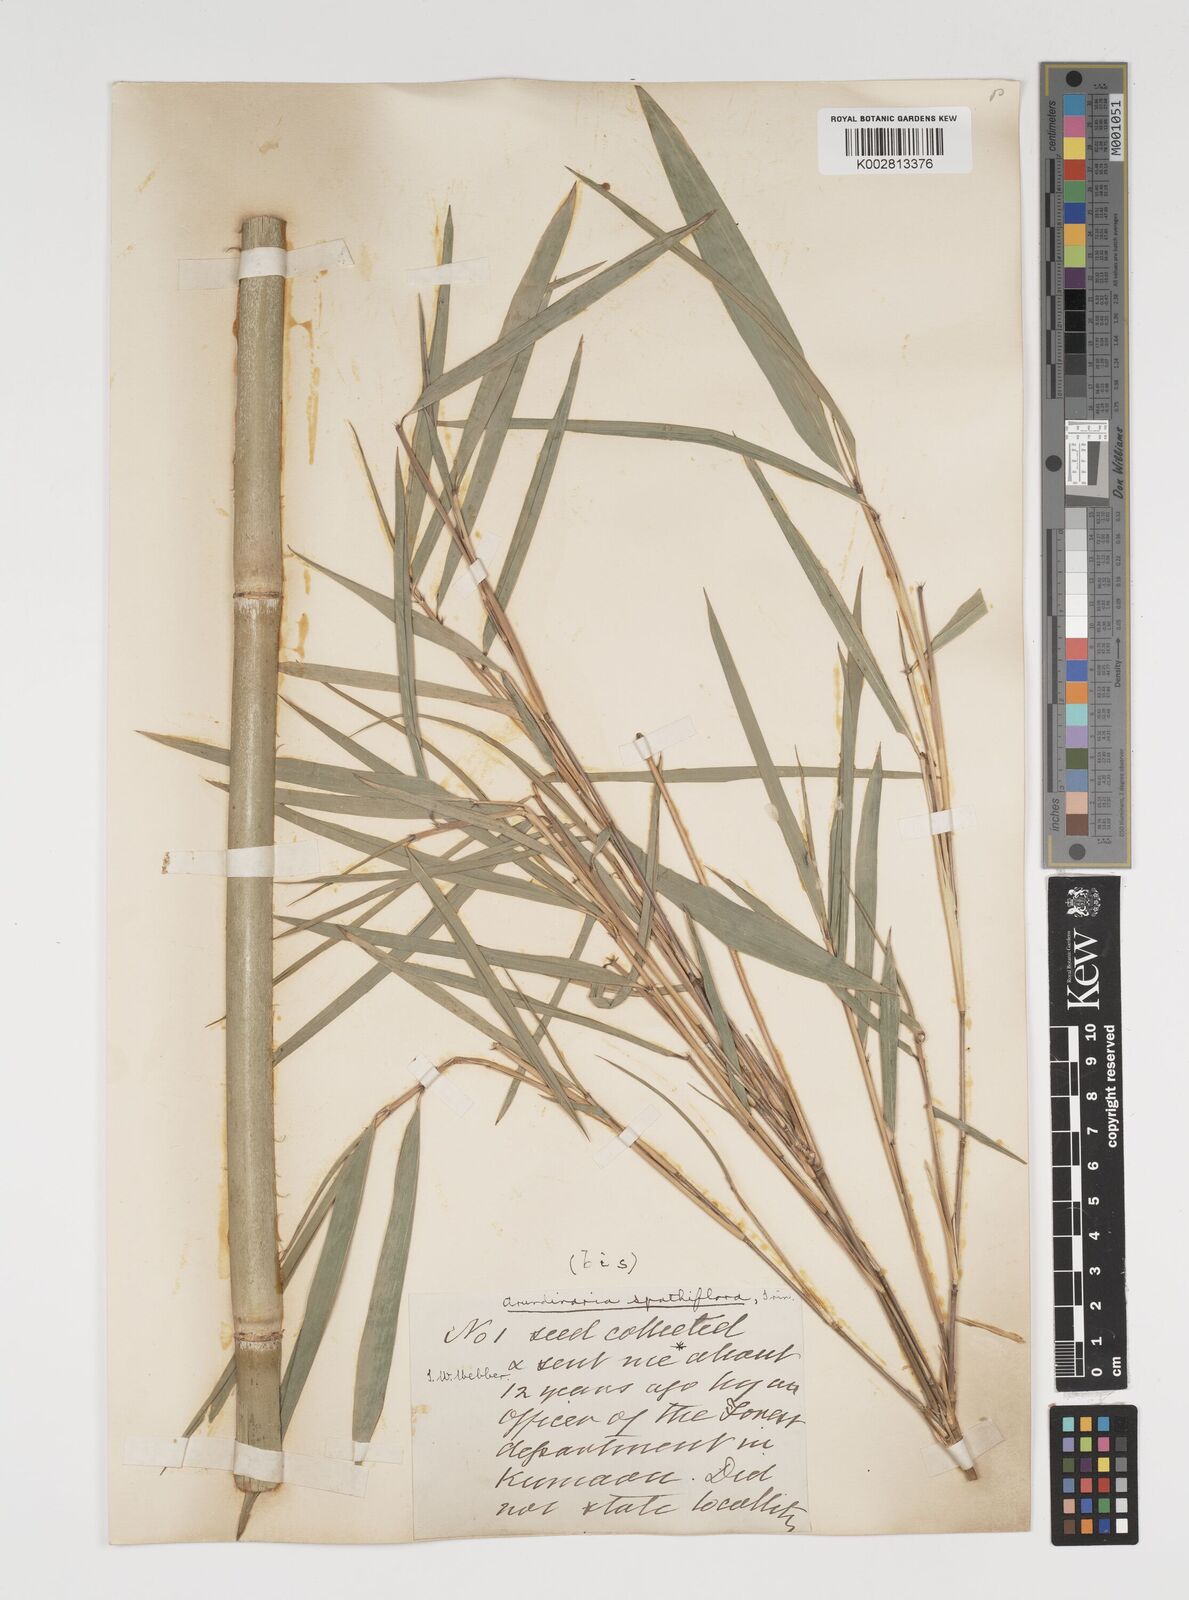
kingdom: Plantae
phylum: Tracheophyta
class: Liliopsida
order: Poales
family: Poaceae
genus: Thamnocalamus
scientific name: Thamnocalamus spathiflorus
